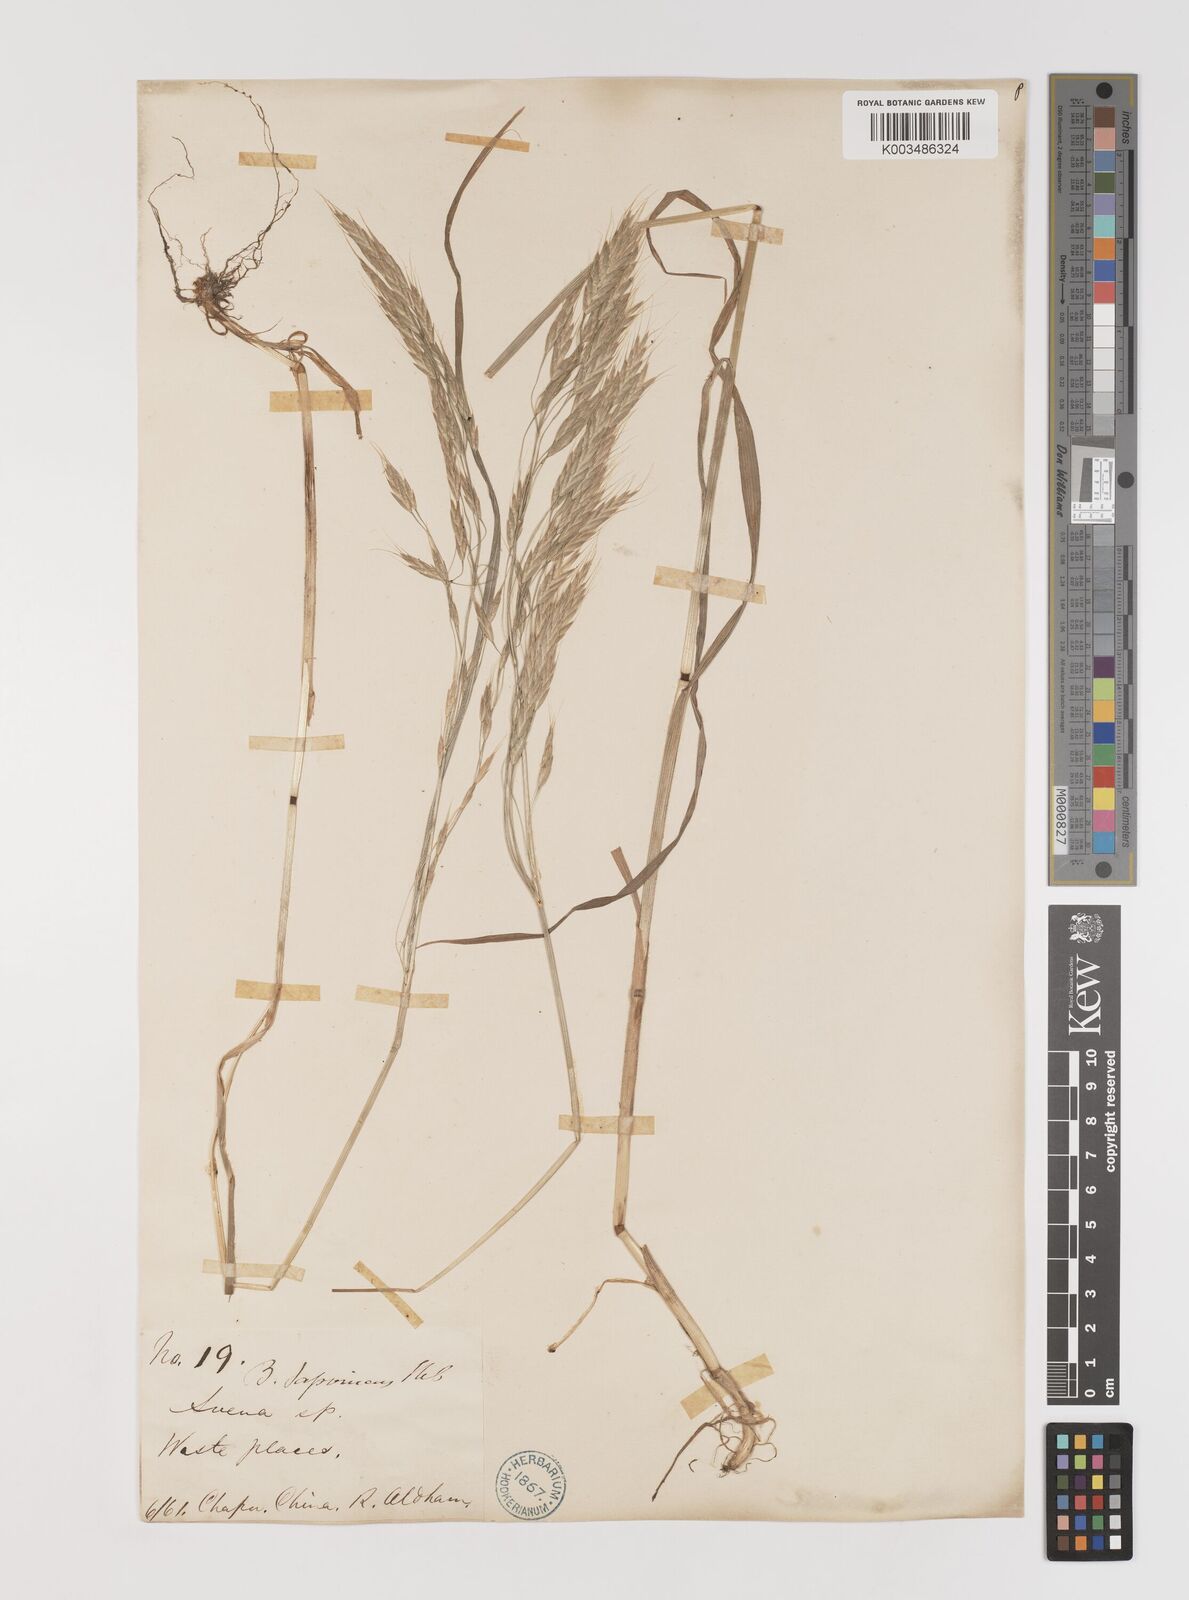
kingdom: Plantae
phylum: Tracheophyta
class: Liliopsida
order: Poales
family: Poaceae
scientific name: Poaceae
